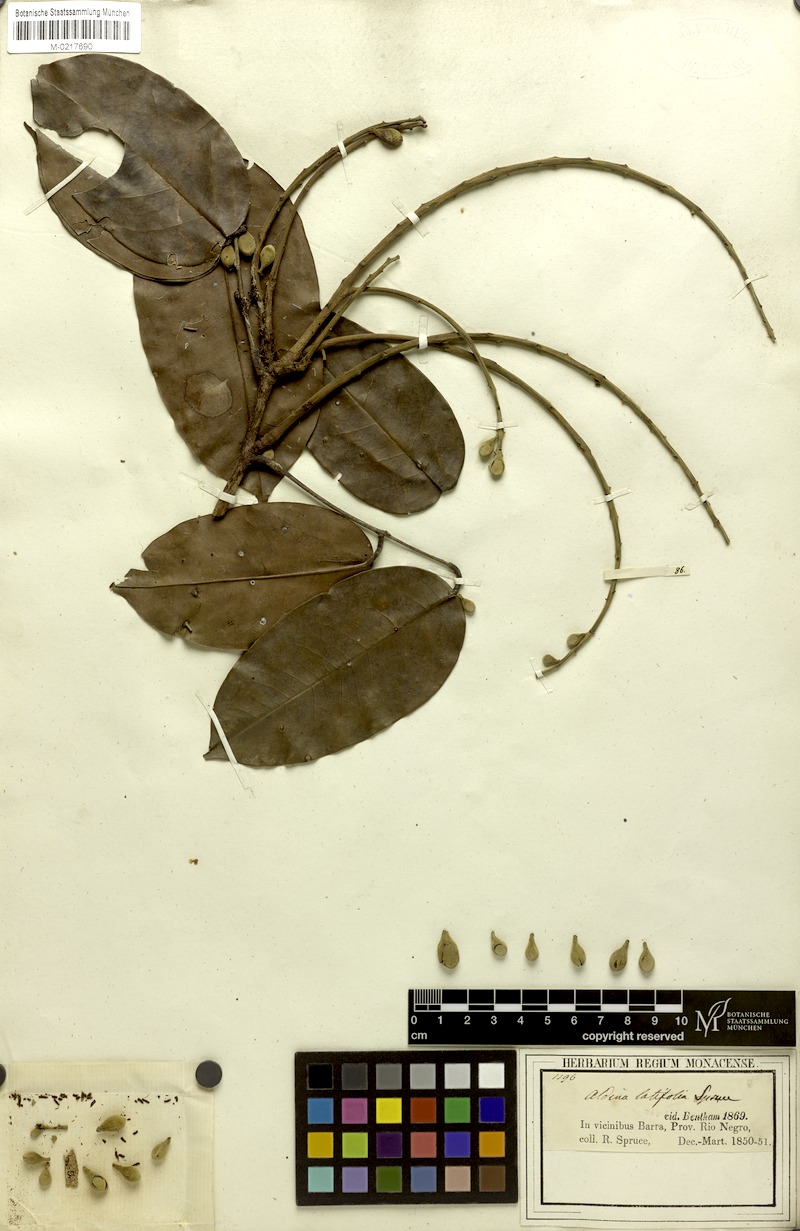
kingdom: Plantae
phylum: Tracheophyta
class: Magnoliopsida
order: Fabales
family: Fabaceae
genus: Aldina
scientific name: Aldina latifolia
